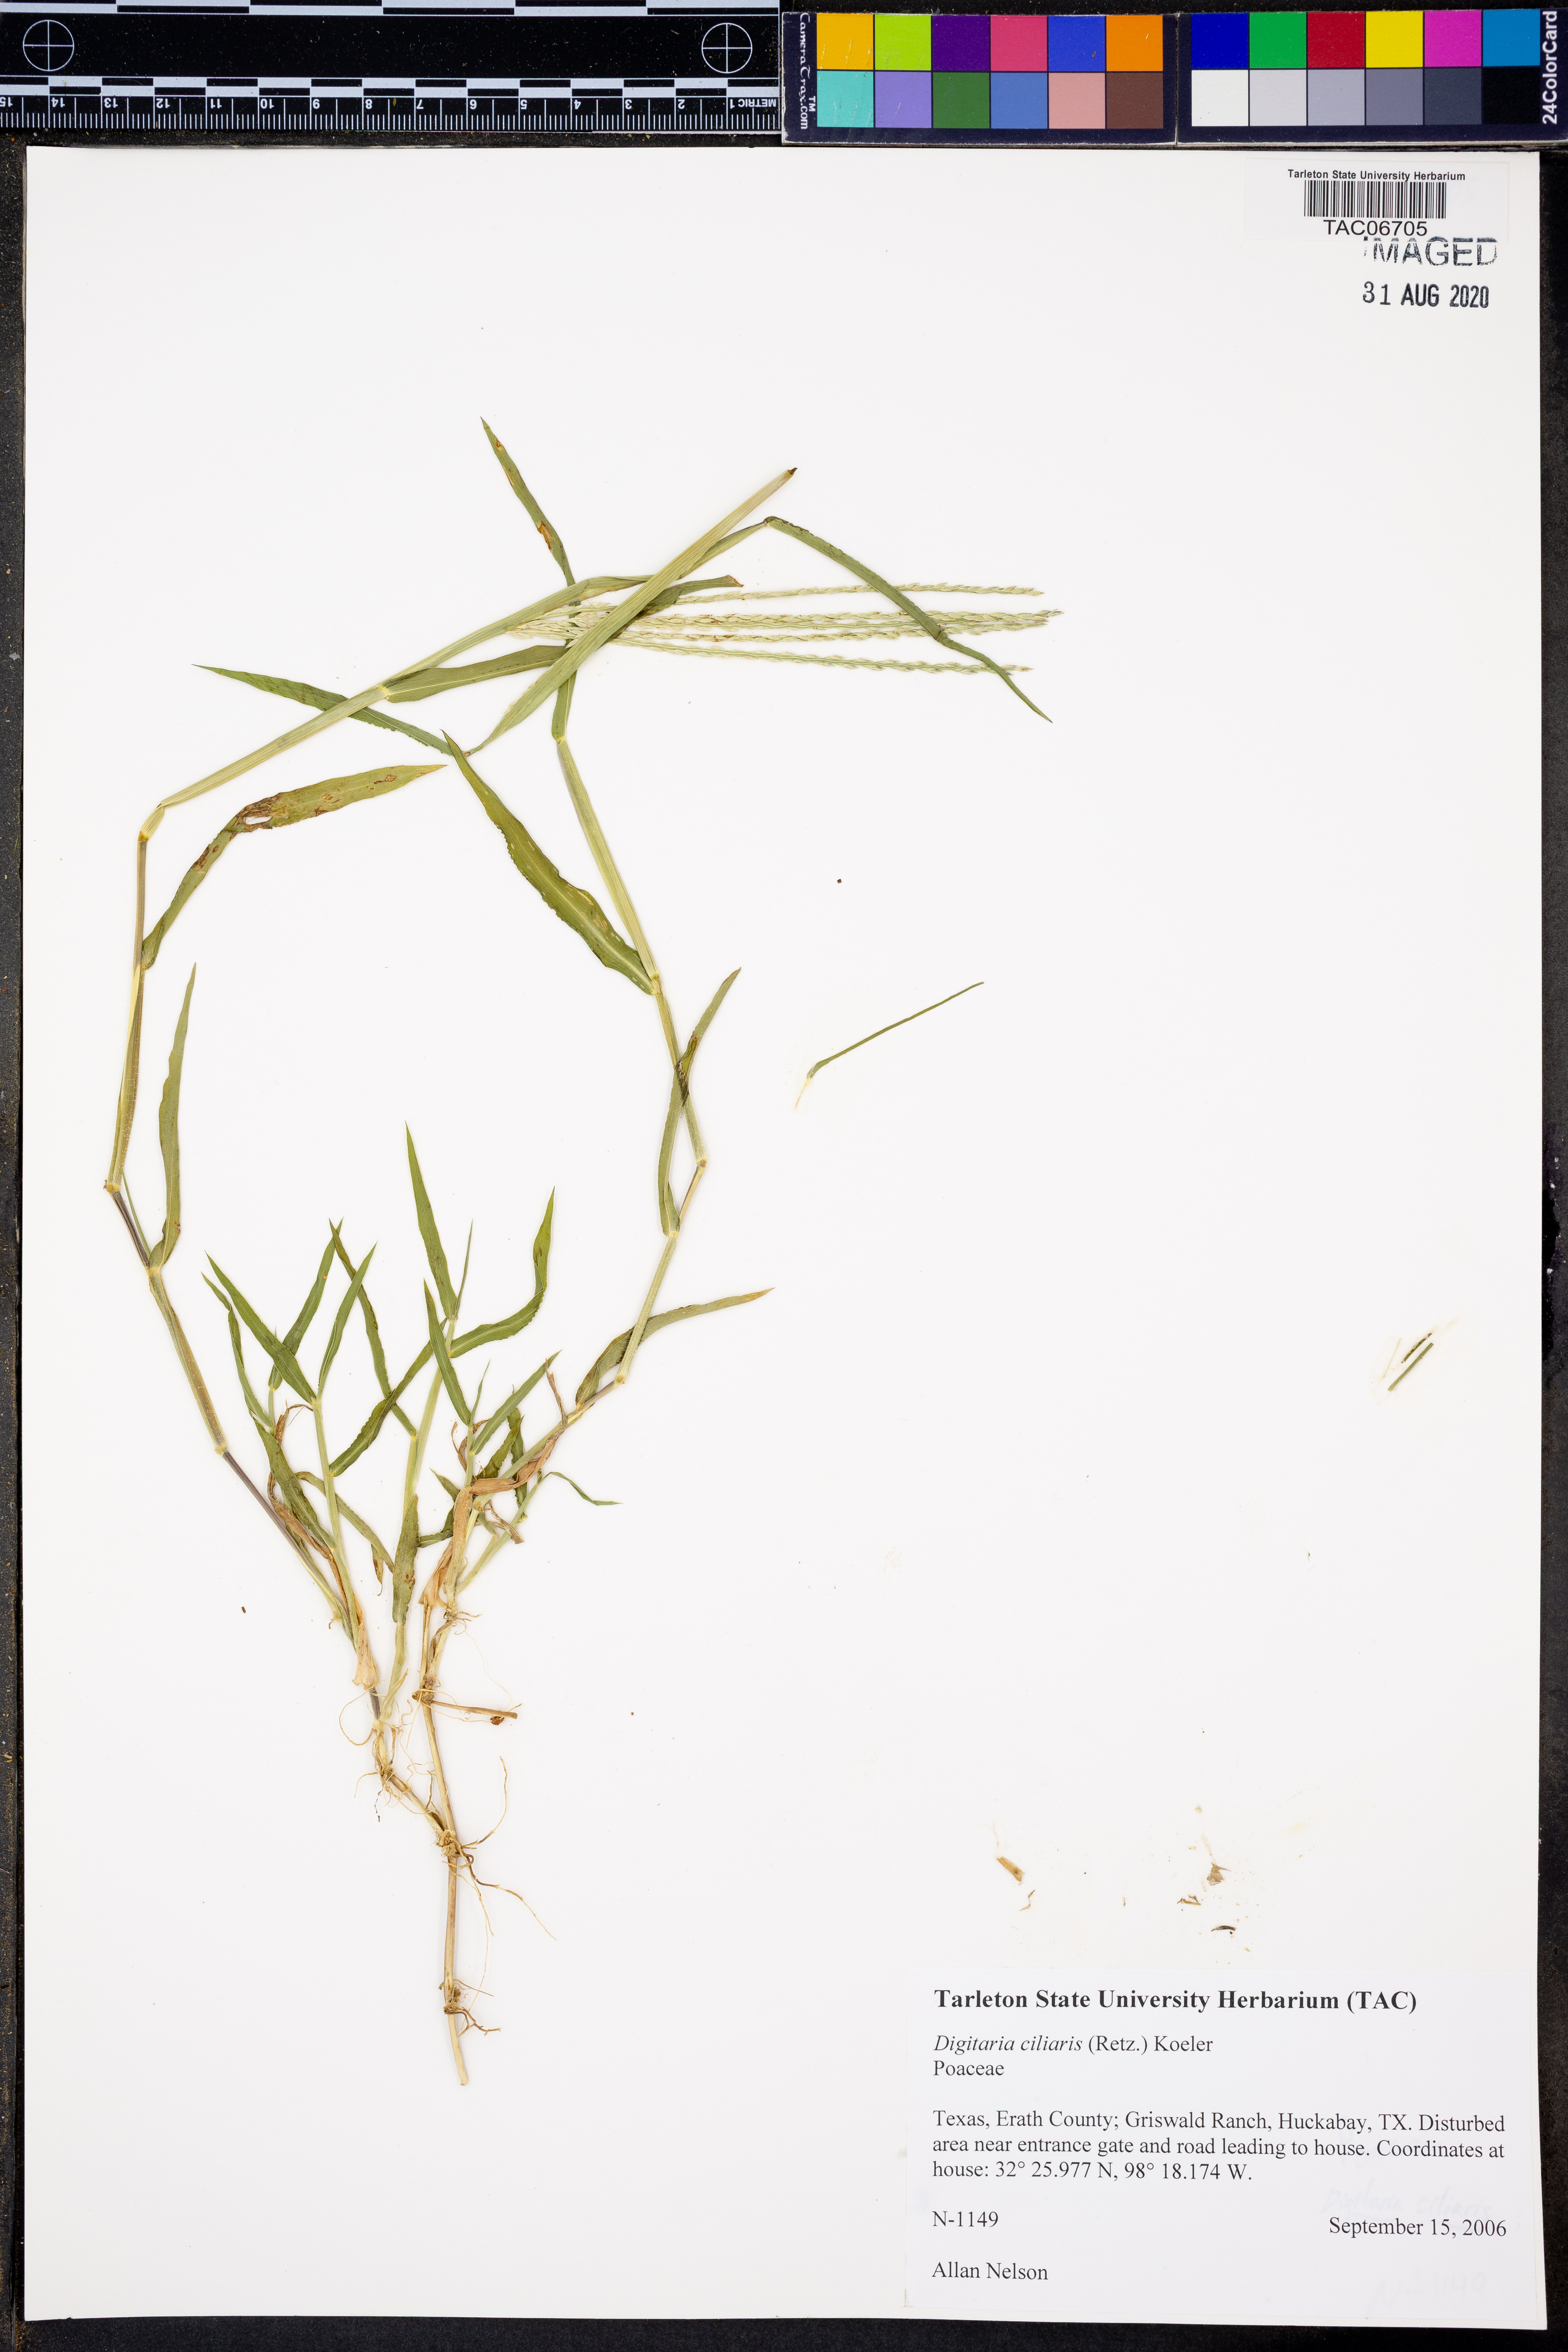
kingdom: Plantae
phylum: Tracheophyta
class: Liliopsida
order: Poales
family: Poaceae
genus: Digitaria
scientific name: Digitaria ciliaris
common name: Tropical finger-grass
